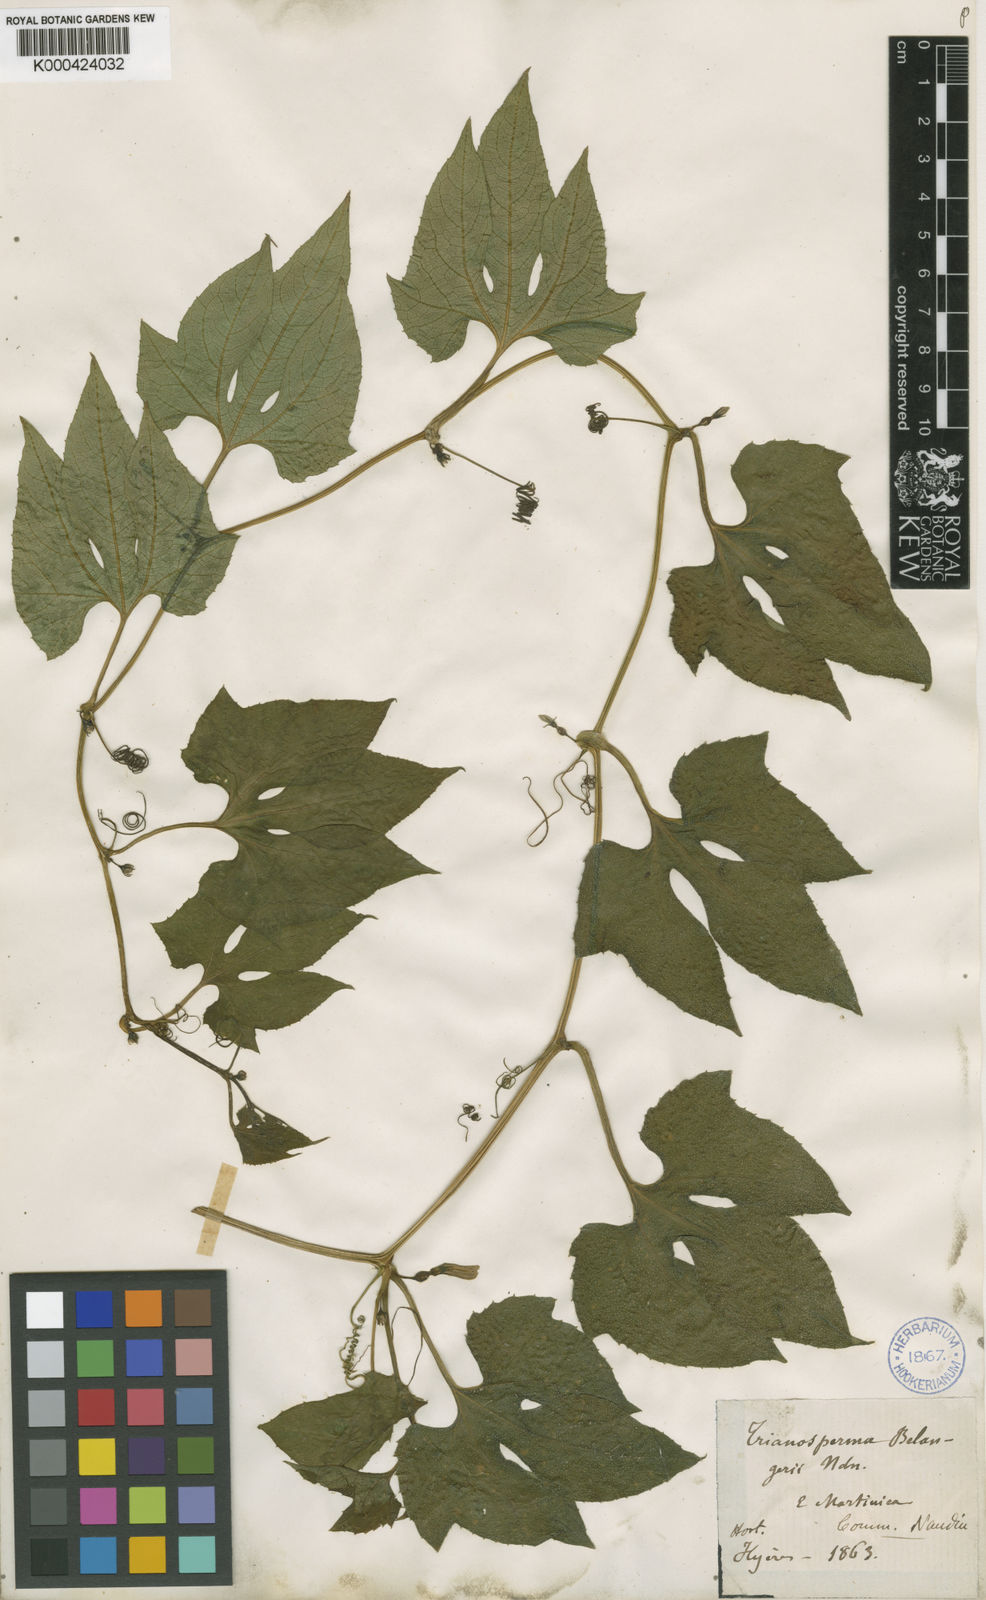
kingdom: Plantae
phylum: Tracheophyta
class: Magnoliopsida
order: Cucurbitales
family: Cucurbitaceae
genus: Cayaponia
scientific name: Cayaponia americana
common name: American melonleaf
